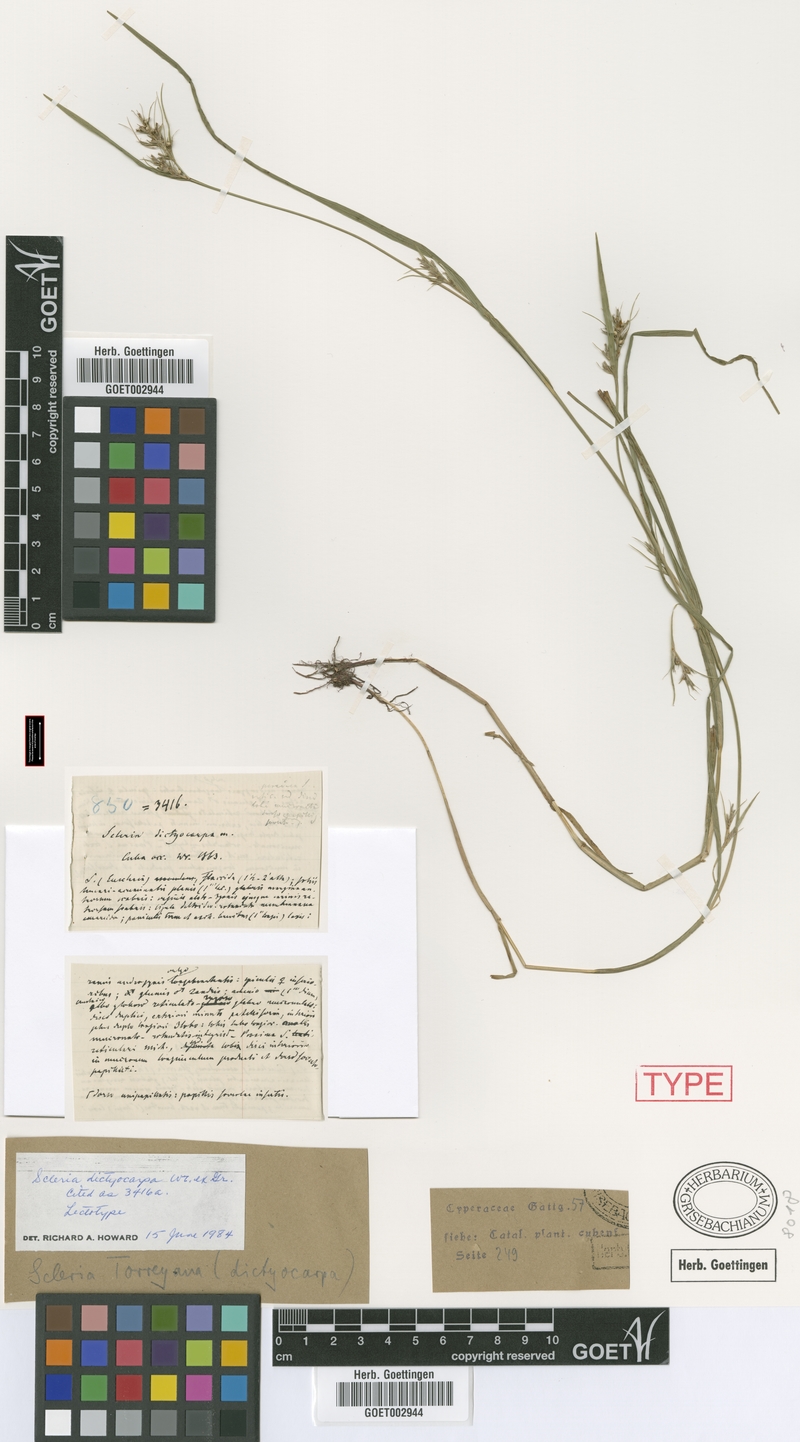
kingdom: Plantae
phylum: Tracheophyta
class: Liliopsida
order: Poales
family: Cyperaceae
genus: Scleria
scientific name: Scleria muehlenbergii
